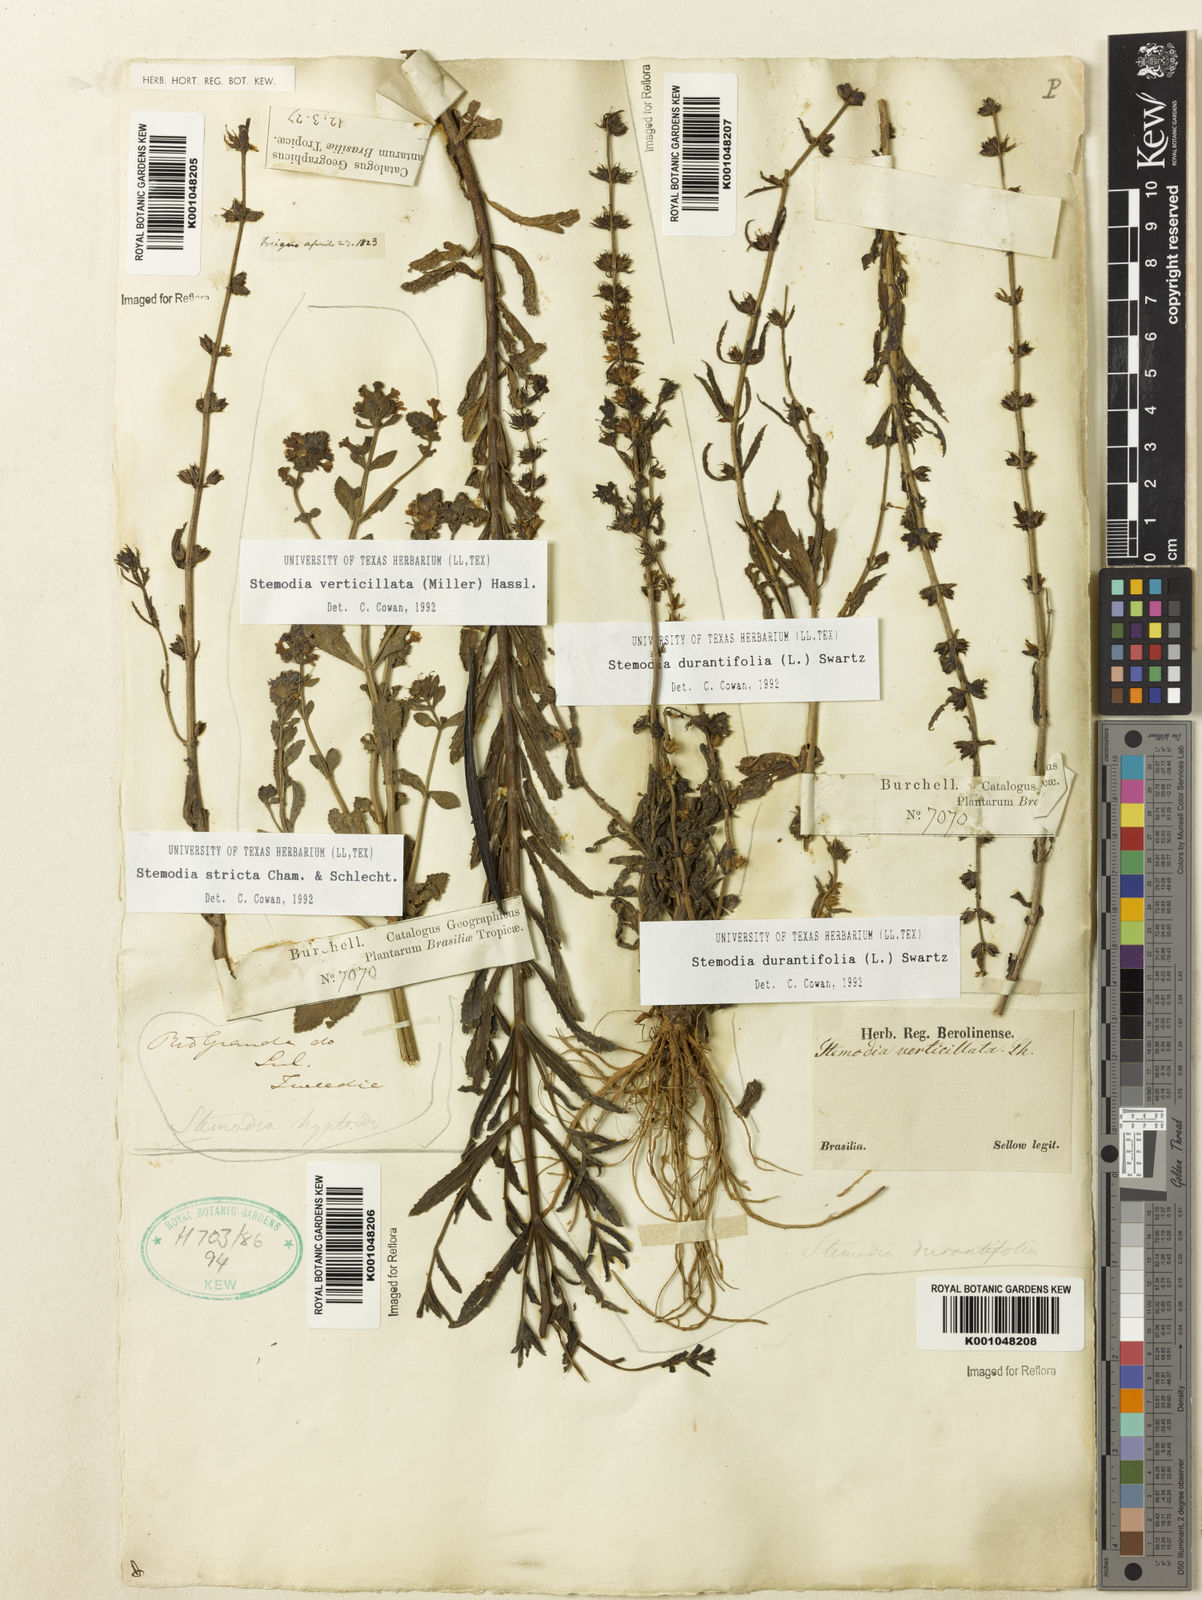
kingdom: Plantae
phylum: Tracheophyta
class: Magnoliopsida
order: Lamiales
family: Plantaginaceae
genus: Stemodia
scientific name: Stemodia durantifolia
